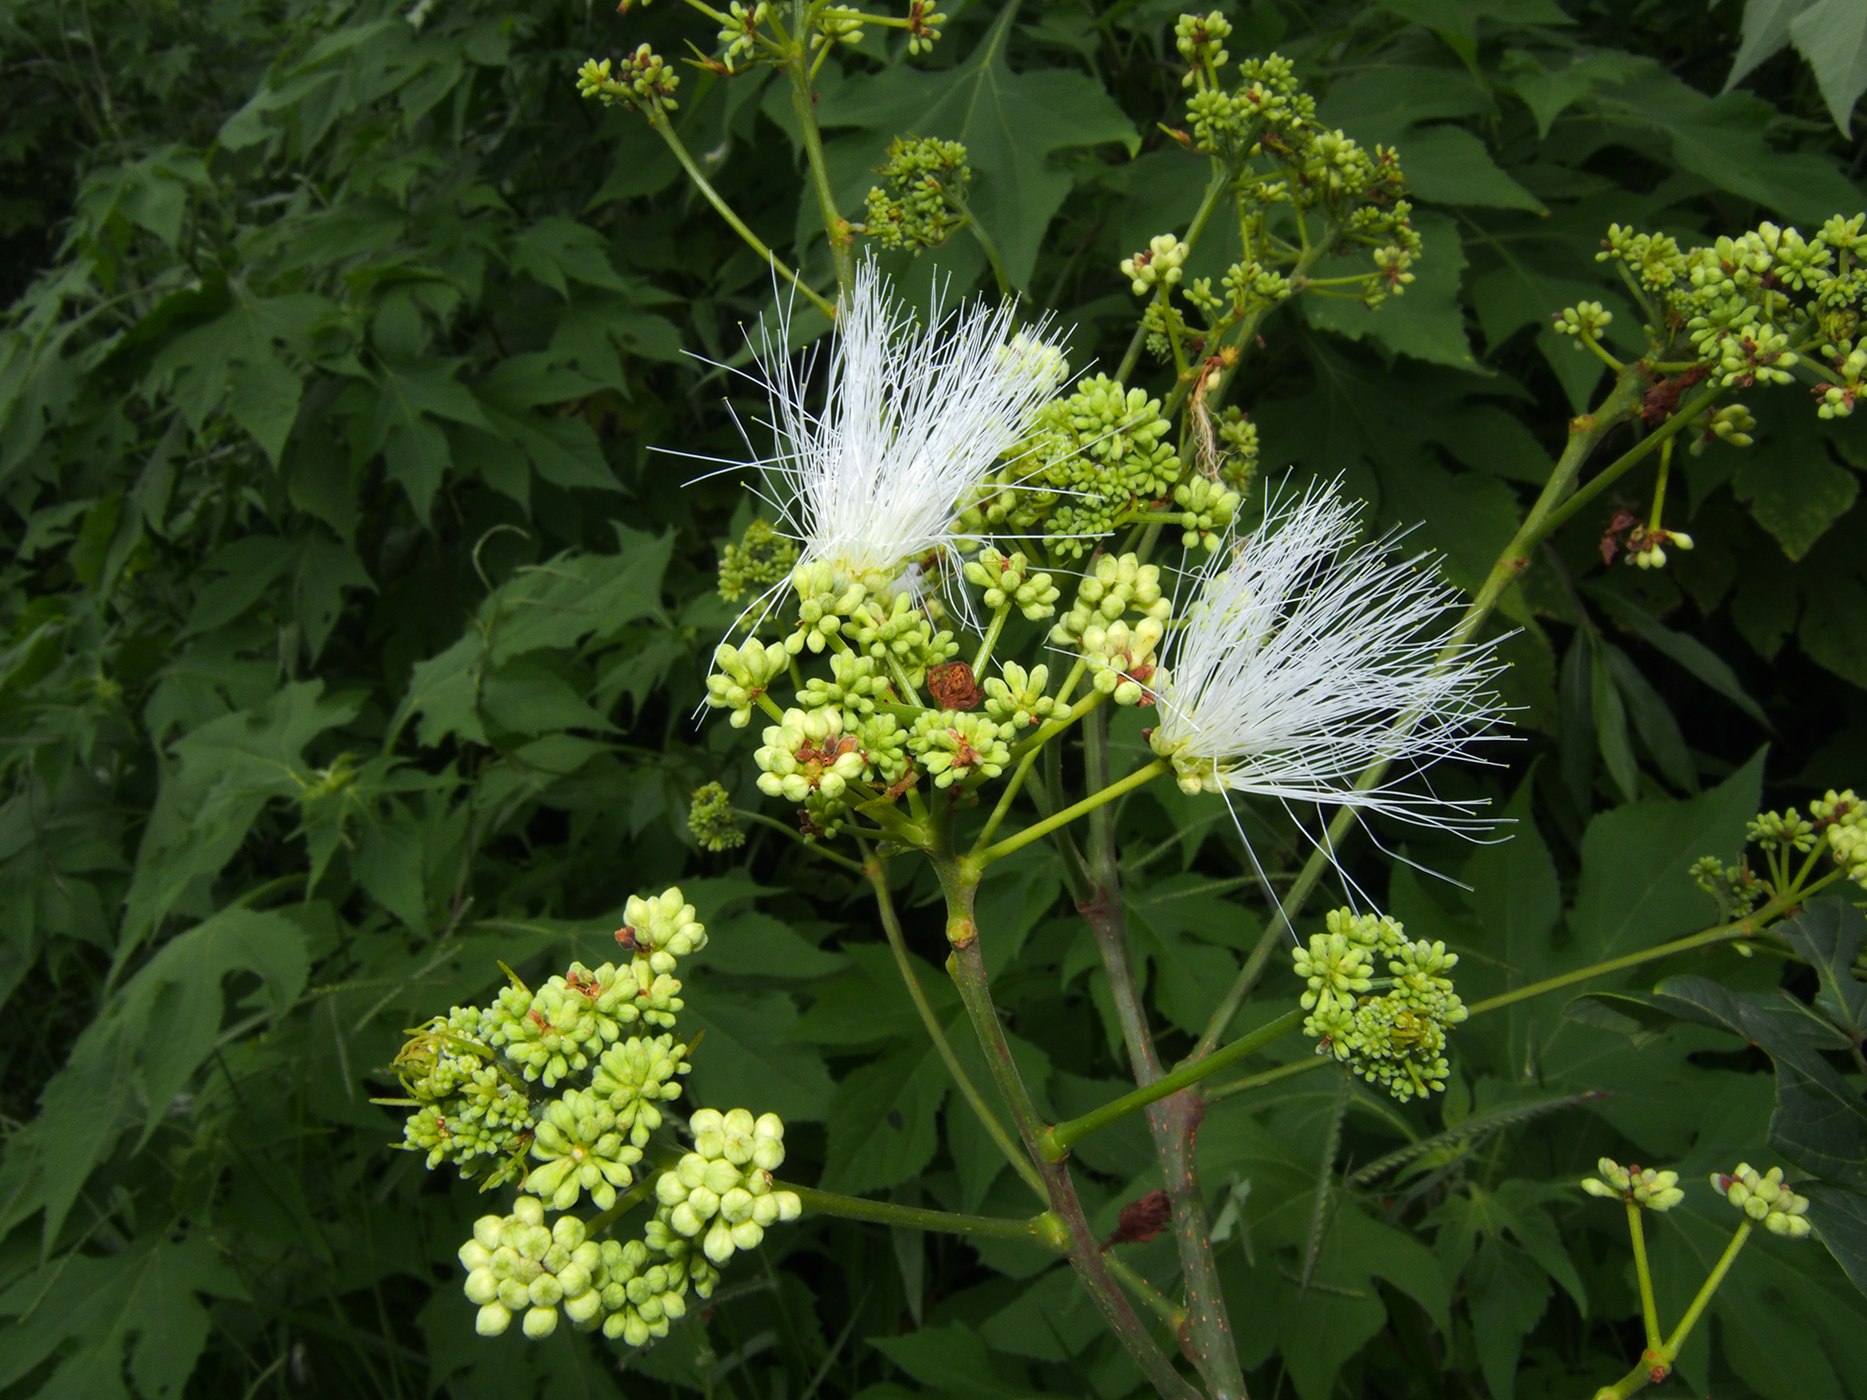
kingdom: Plantae
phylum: Tracheophyta
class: Magnoliopsida
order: Fabales
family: Fabaceae
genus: Albizia
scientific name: Albizia crassiramea
